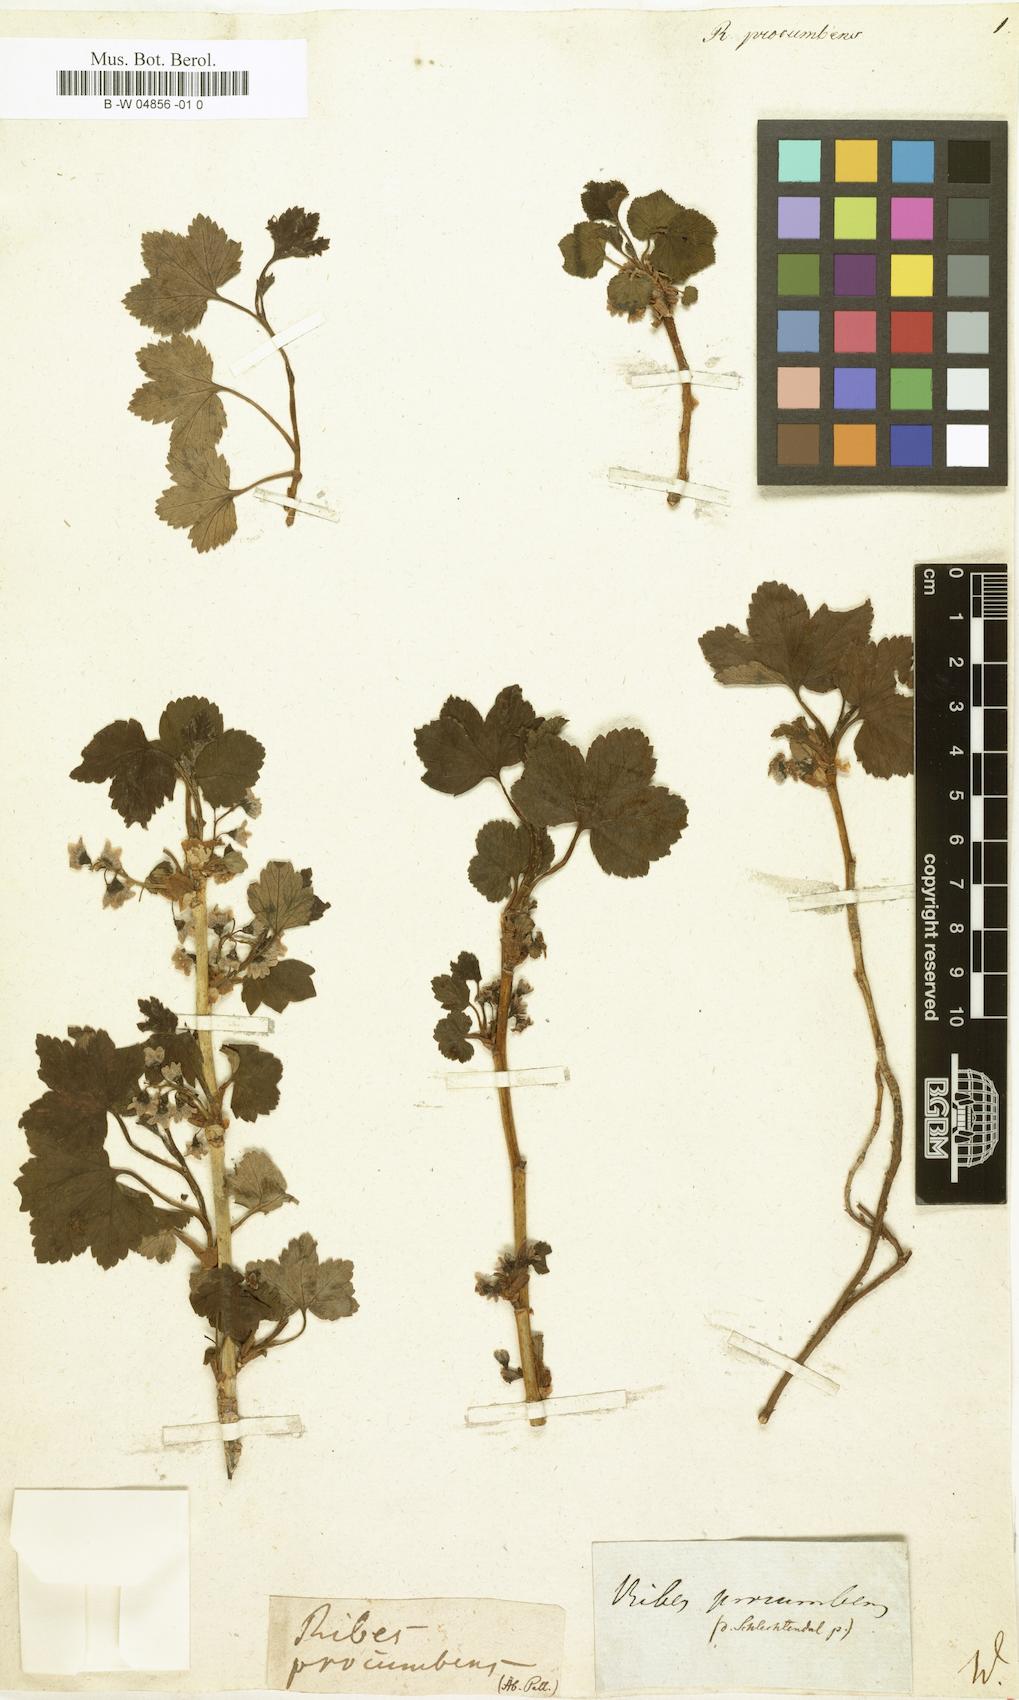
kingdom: Plantae
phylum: Tracheophyta
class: Magnoliopsida
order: Saxifragales
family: Grossulariaceae
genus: Ribes
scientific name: Ribes procumbens
